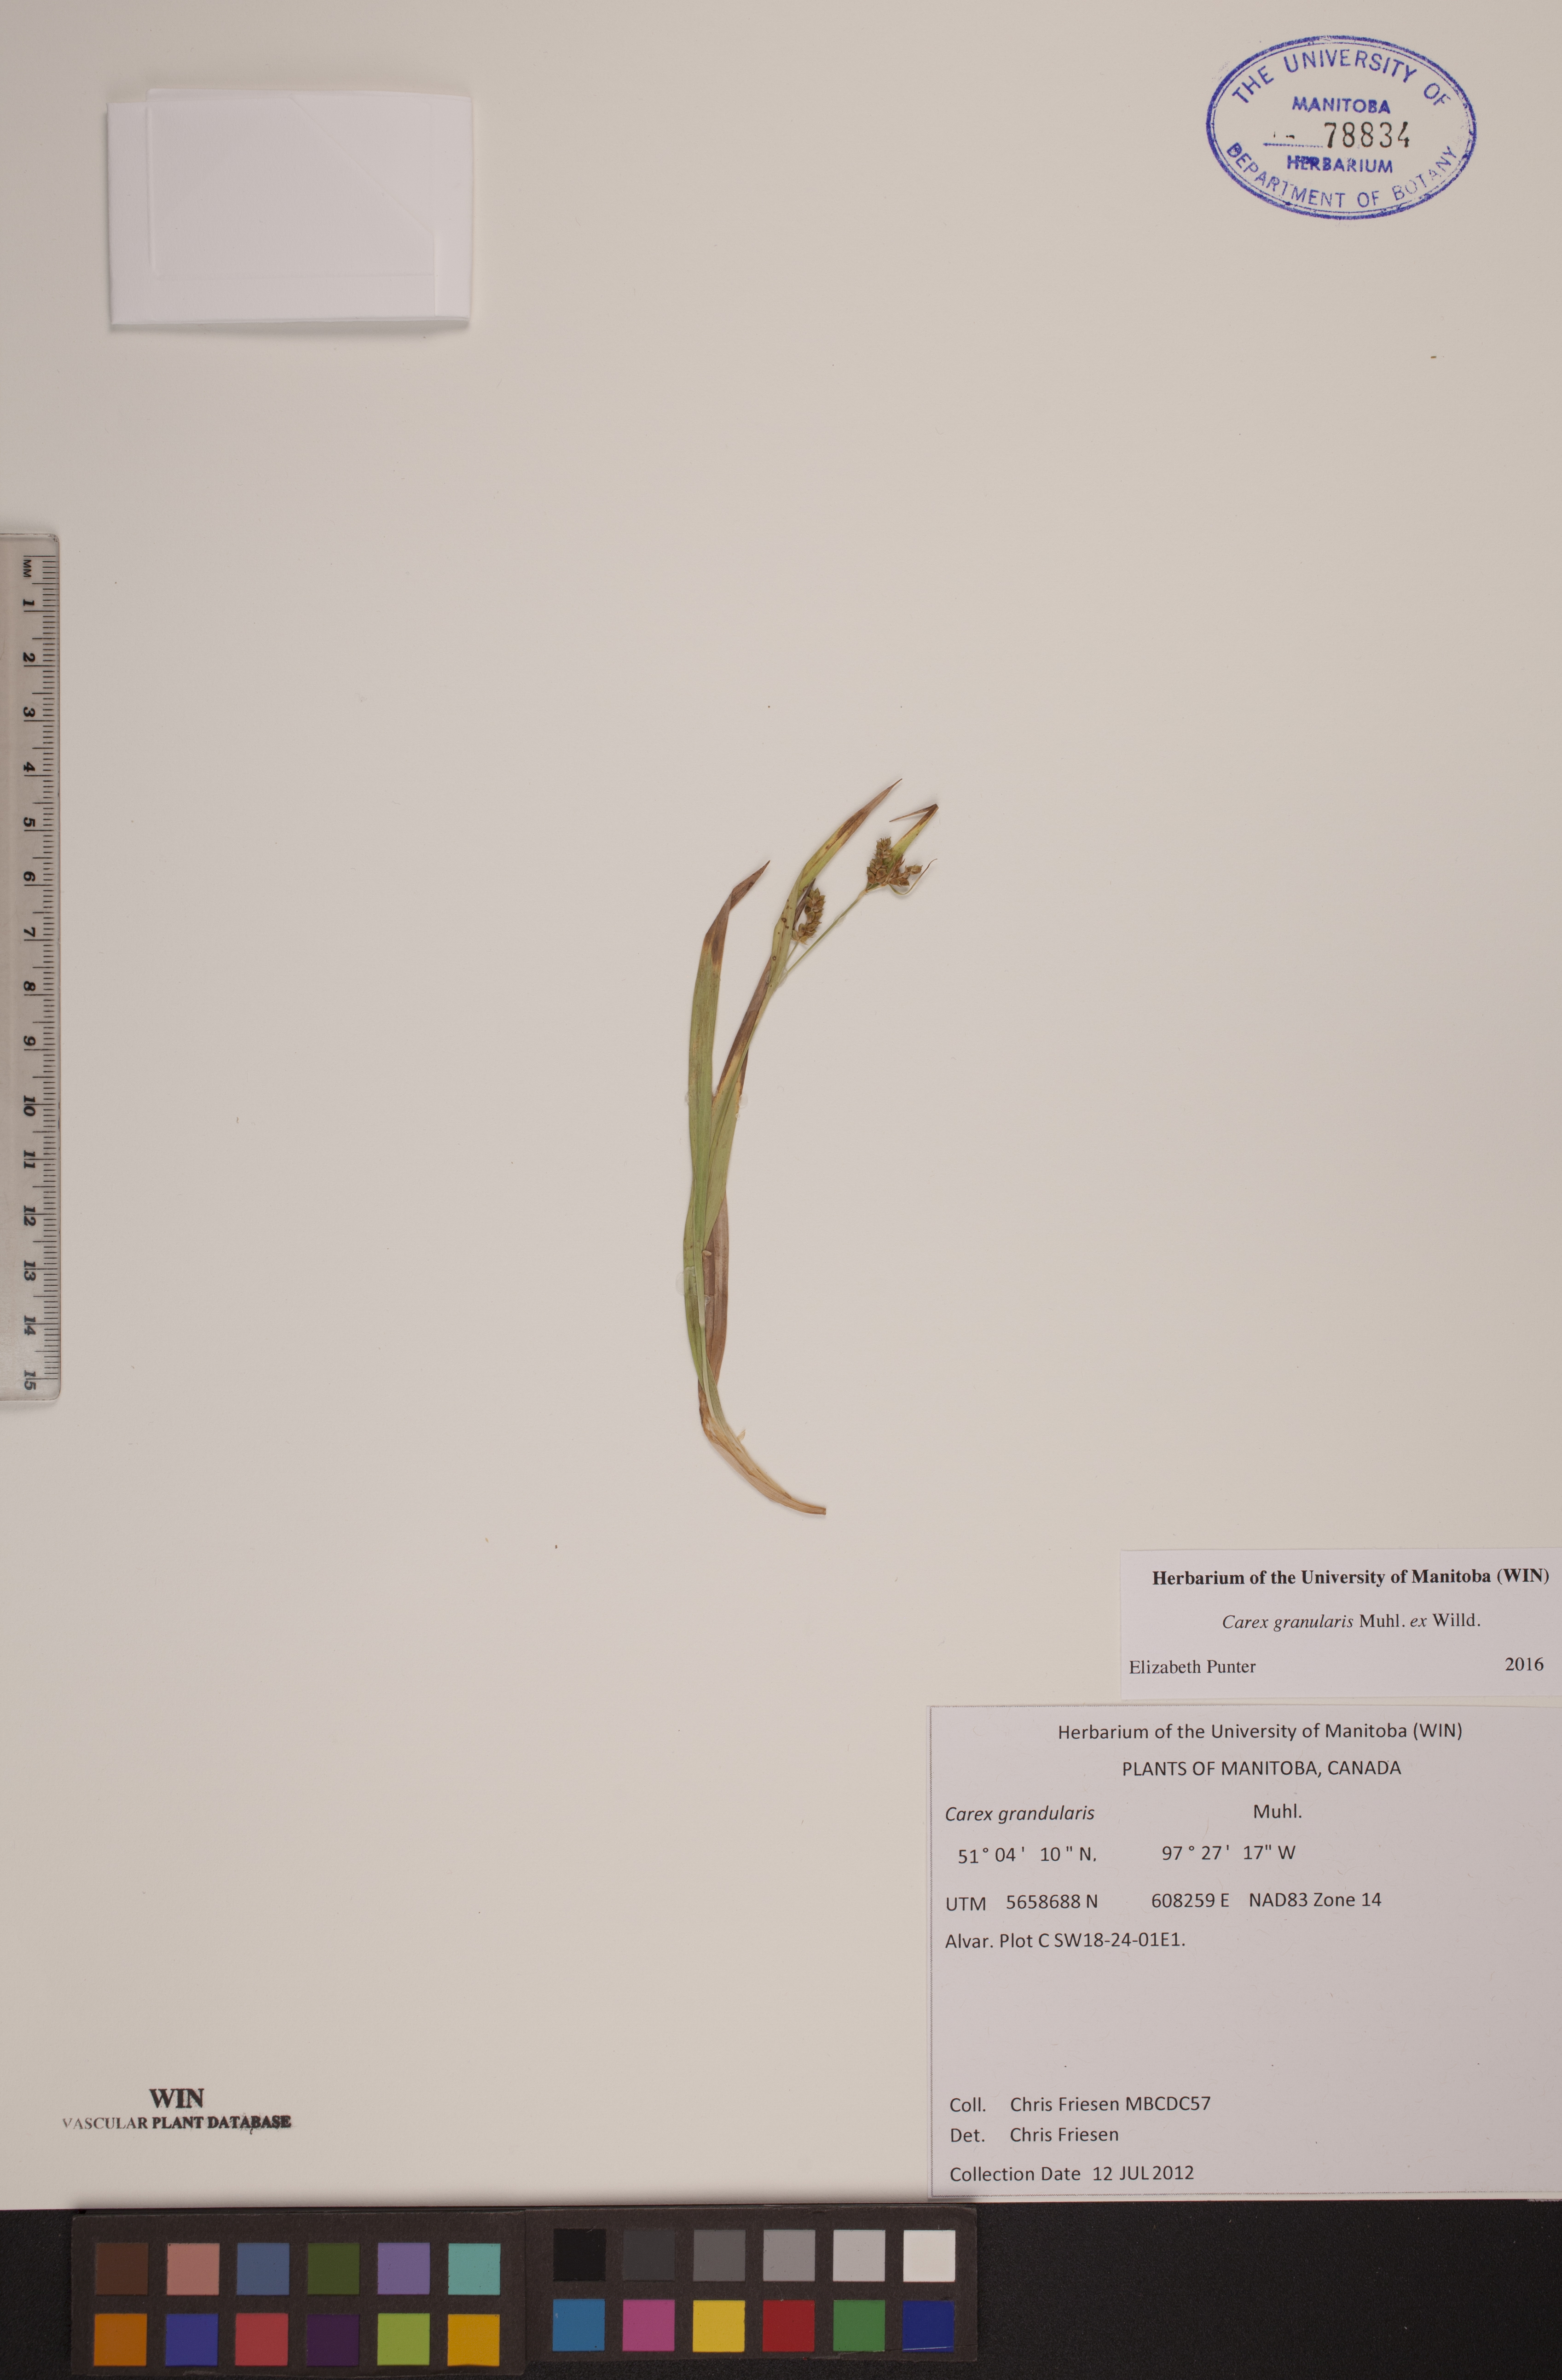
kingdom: Plantae
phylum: Tracheophyta
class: Liliopsida
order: Poales
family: Cyperaceae
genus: Carex
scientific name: Carex granularis
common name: Granular sedge
